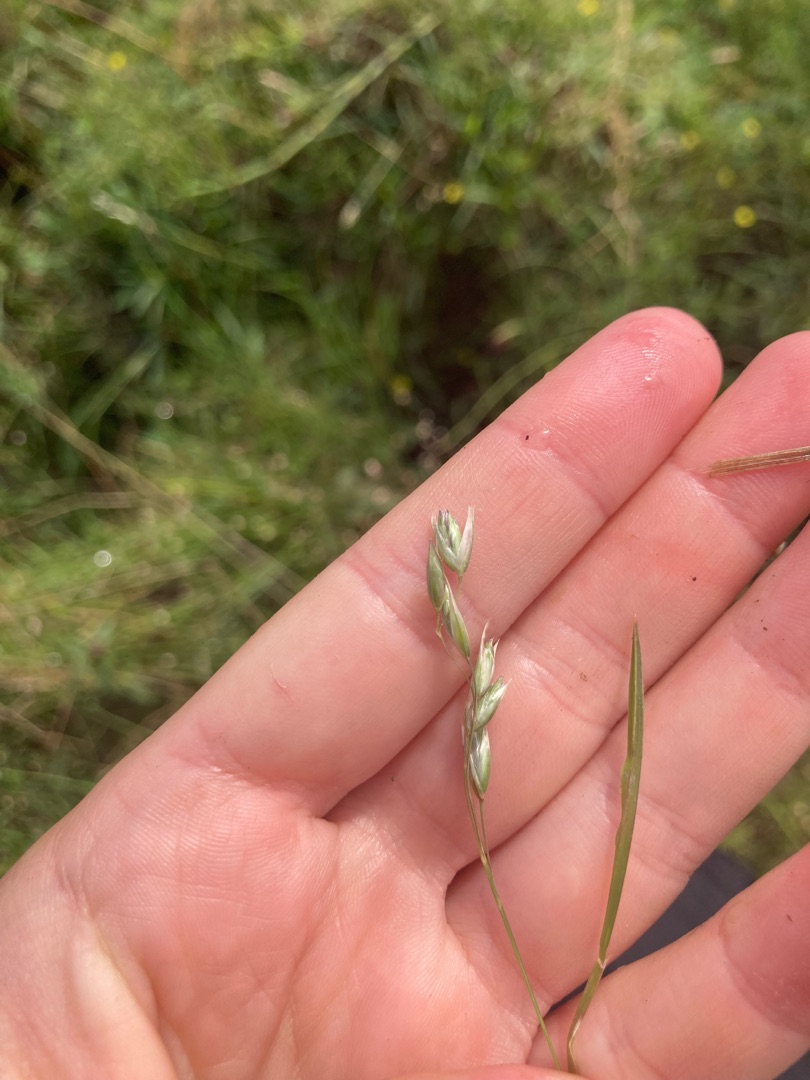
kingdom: Plantae
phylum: Tracheophyta
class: Liliopsida
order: Poales
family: Poaceae
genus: Danthonia
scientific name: Danthonia decumbens
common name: Tandbælg
